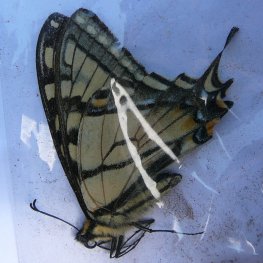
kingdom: Animalia
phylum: Arthropoda
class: Insecta
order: Lepidoptera
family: Papilionidae
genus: Pterourus
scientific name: Pterourus canadensis
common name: Canadian Tiger Swallowtail
